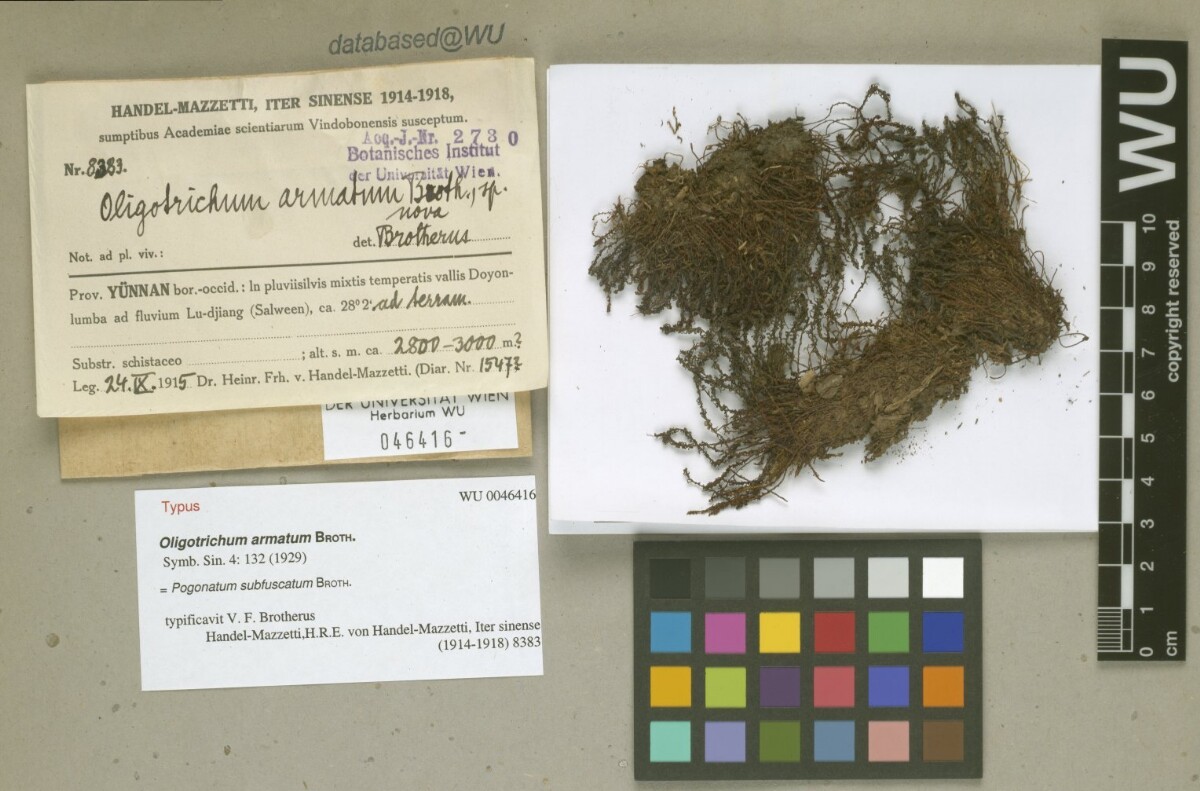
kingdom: Plantae
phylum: Bryophyta
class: Polytrichopsida
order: Polytrichales
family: Polytrichaceae
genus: Pogonatum
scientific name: Pogonatum subfuscatum
